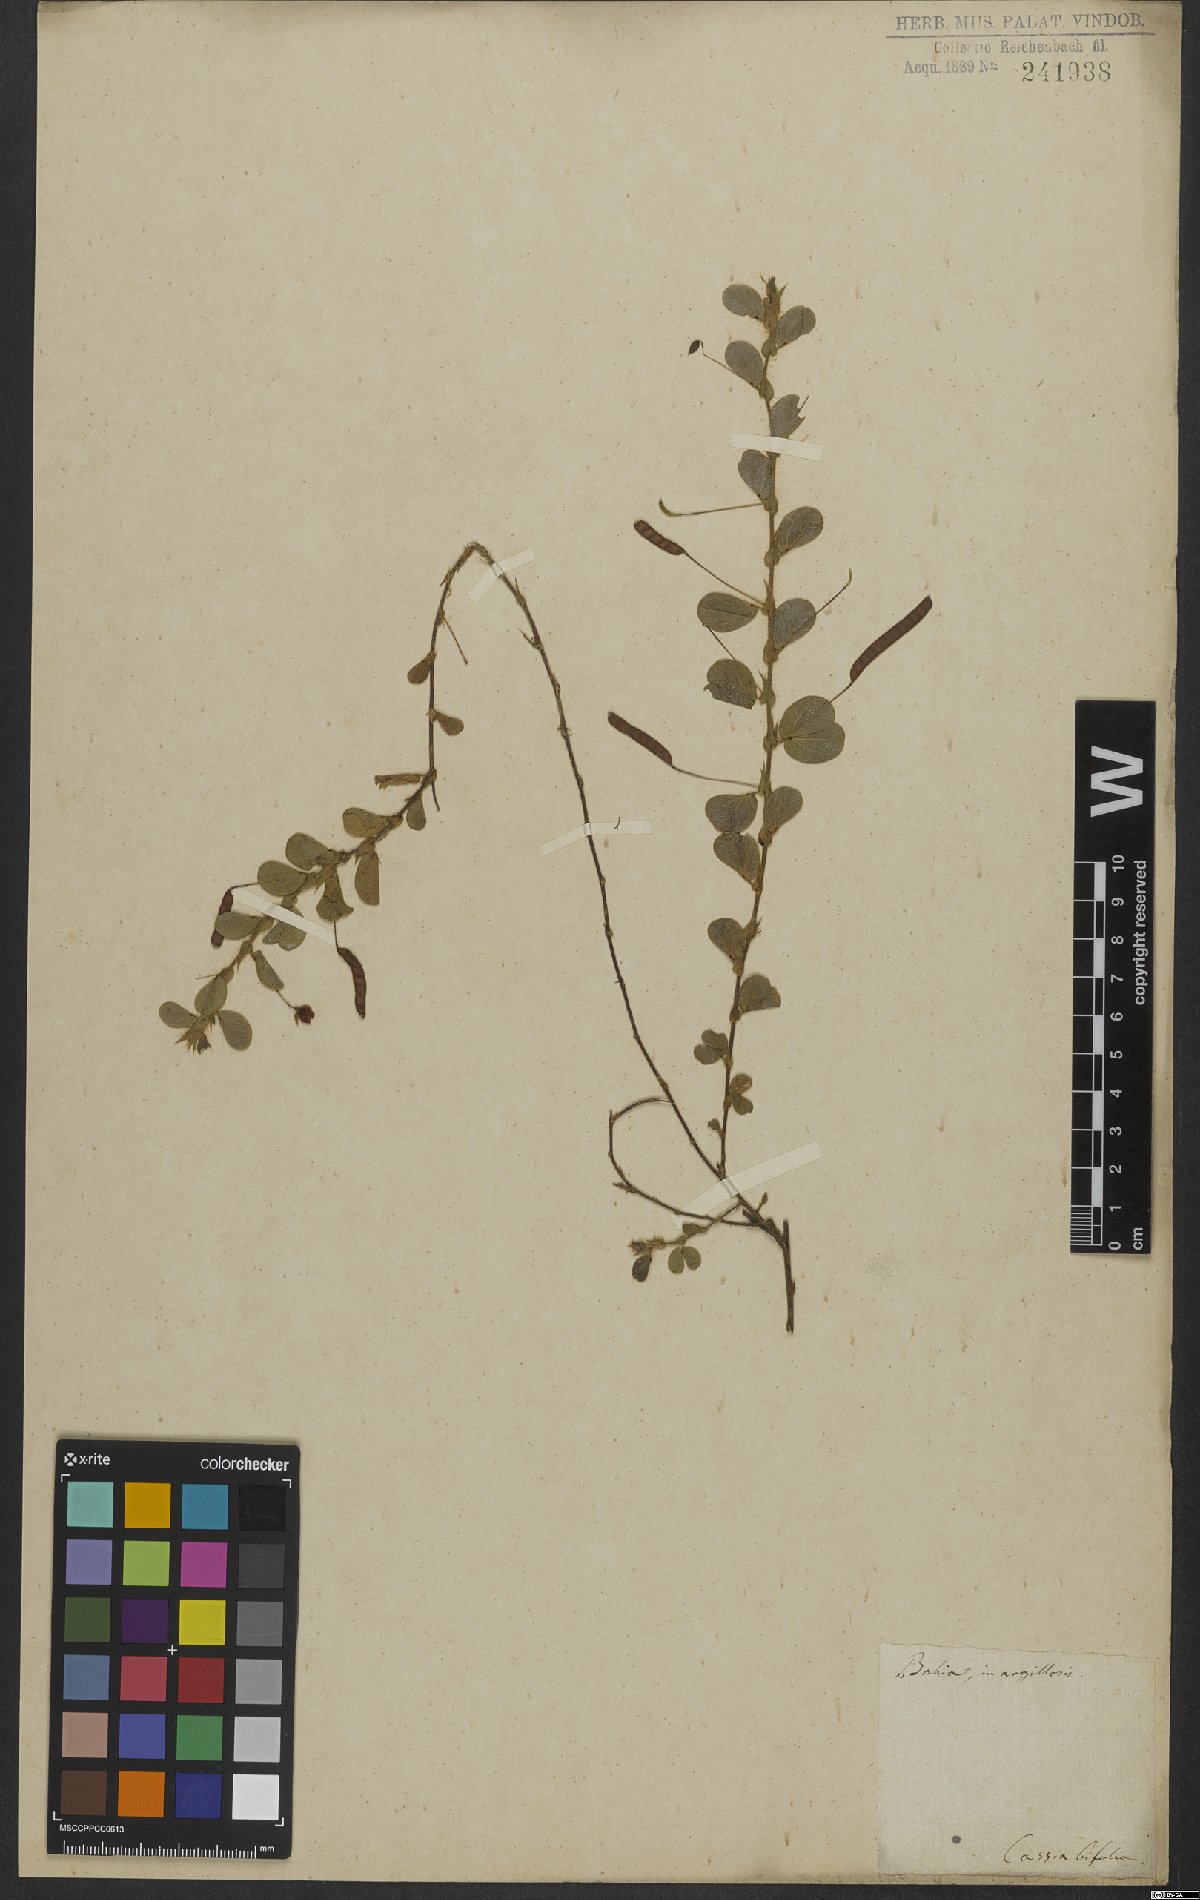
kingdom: Plantae
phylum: Tracheophyta
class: Magnoliopsida
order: Fabales
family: Fabaceae
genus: Chamaecrista
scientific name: Chamaecrista rotundifolia
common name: Round-leaf cassia
